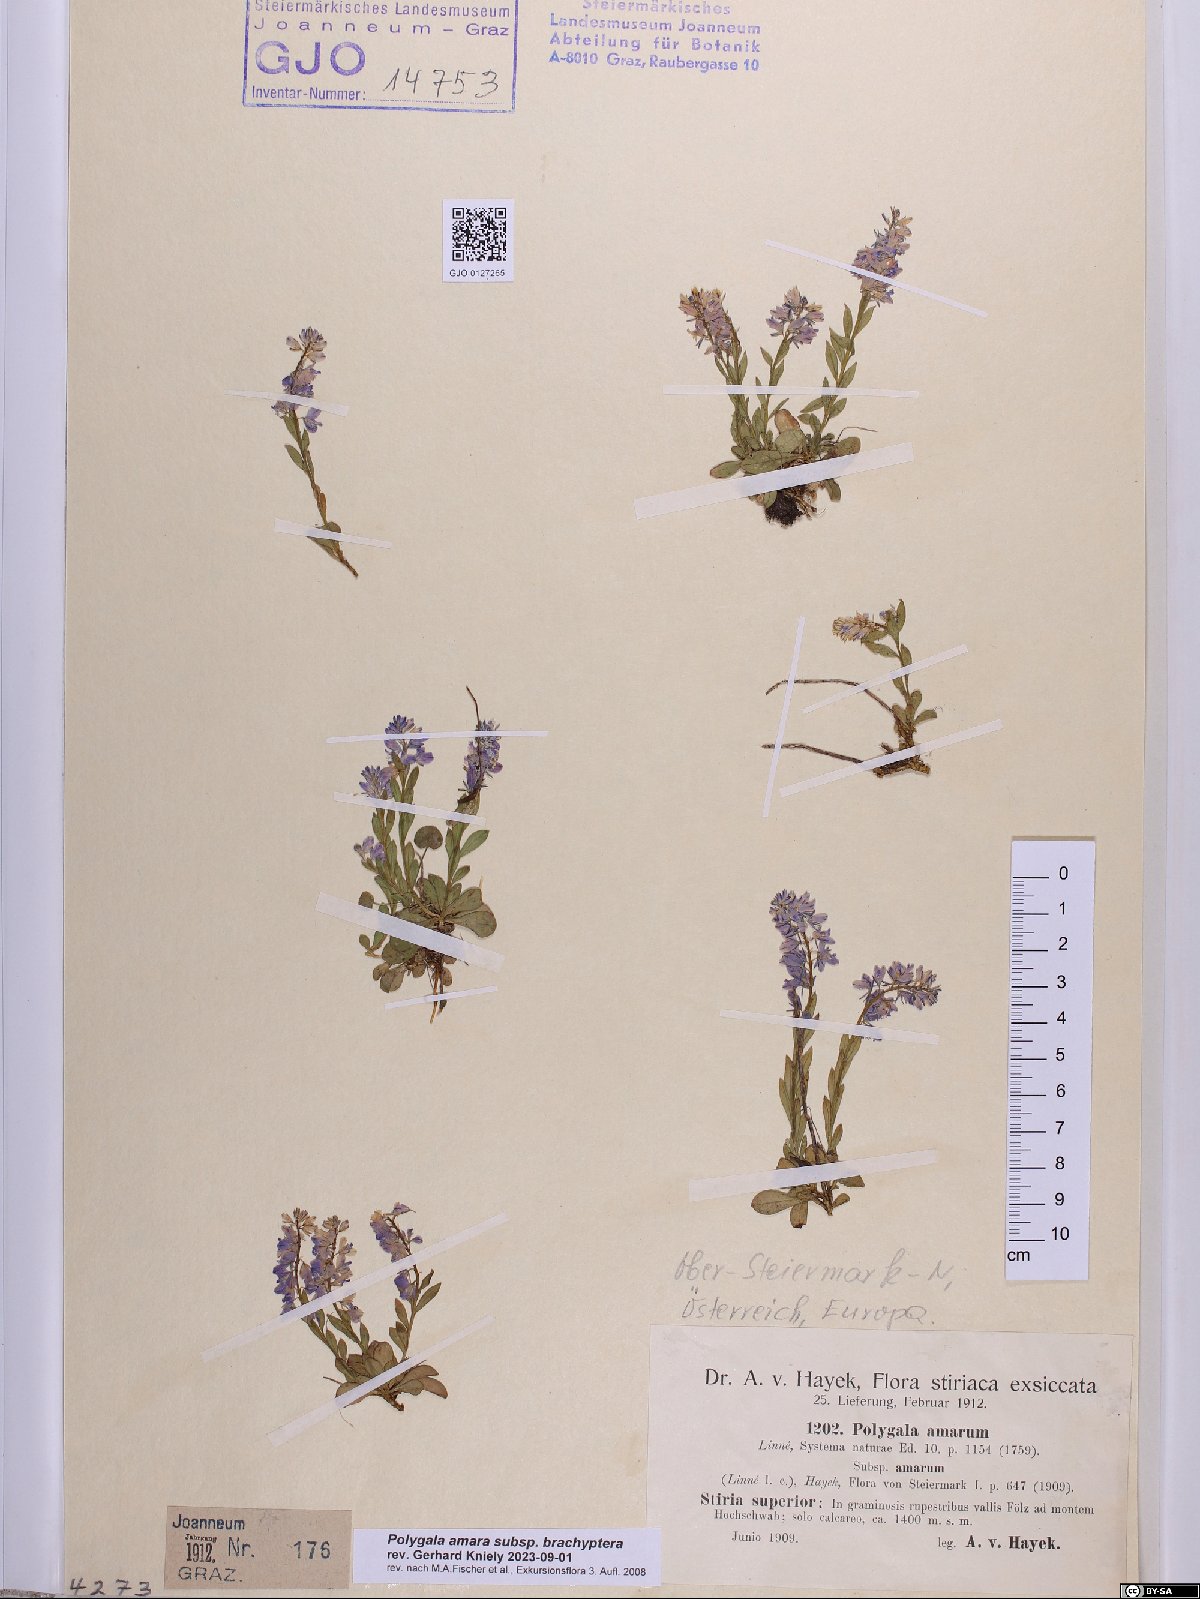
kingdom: Plantae
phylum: Tracheophyta
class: Magnoliopsida
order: Fabales
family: Polygalaceae
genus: Polygala
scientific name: Polygala amara
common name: Milkwort
